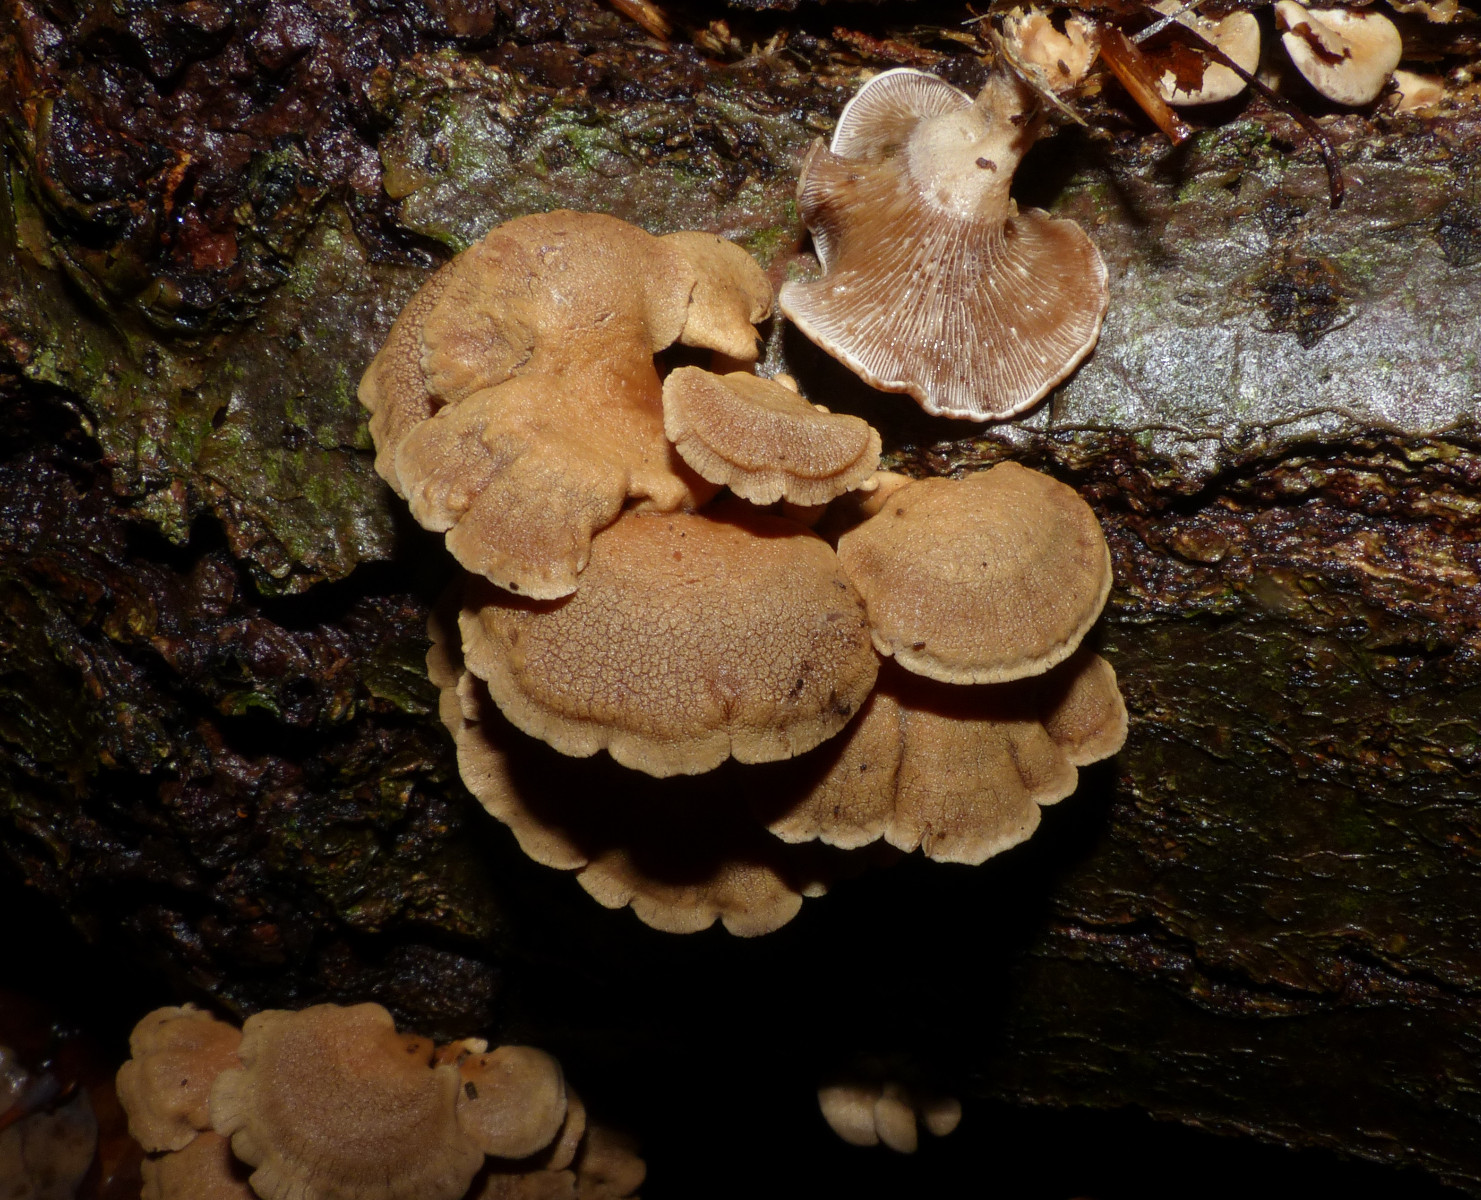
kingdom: Fungi
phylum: Basidiomycota
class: Agaricomycetes
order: Agaricales
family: Mycenaceae
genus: Panellus
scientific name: Panellus stipticus
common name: kliddet epaulethat
